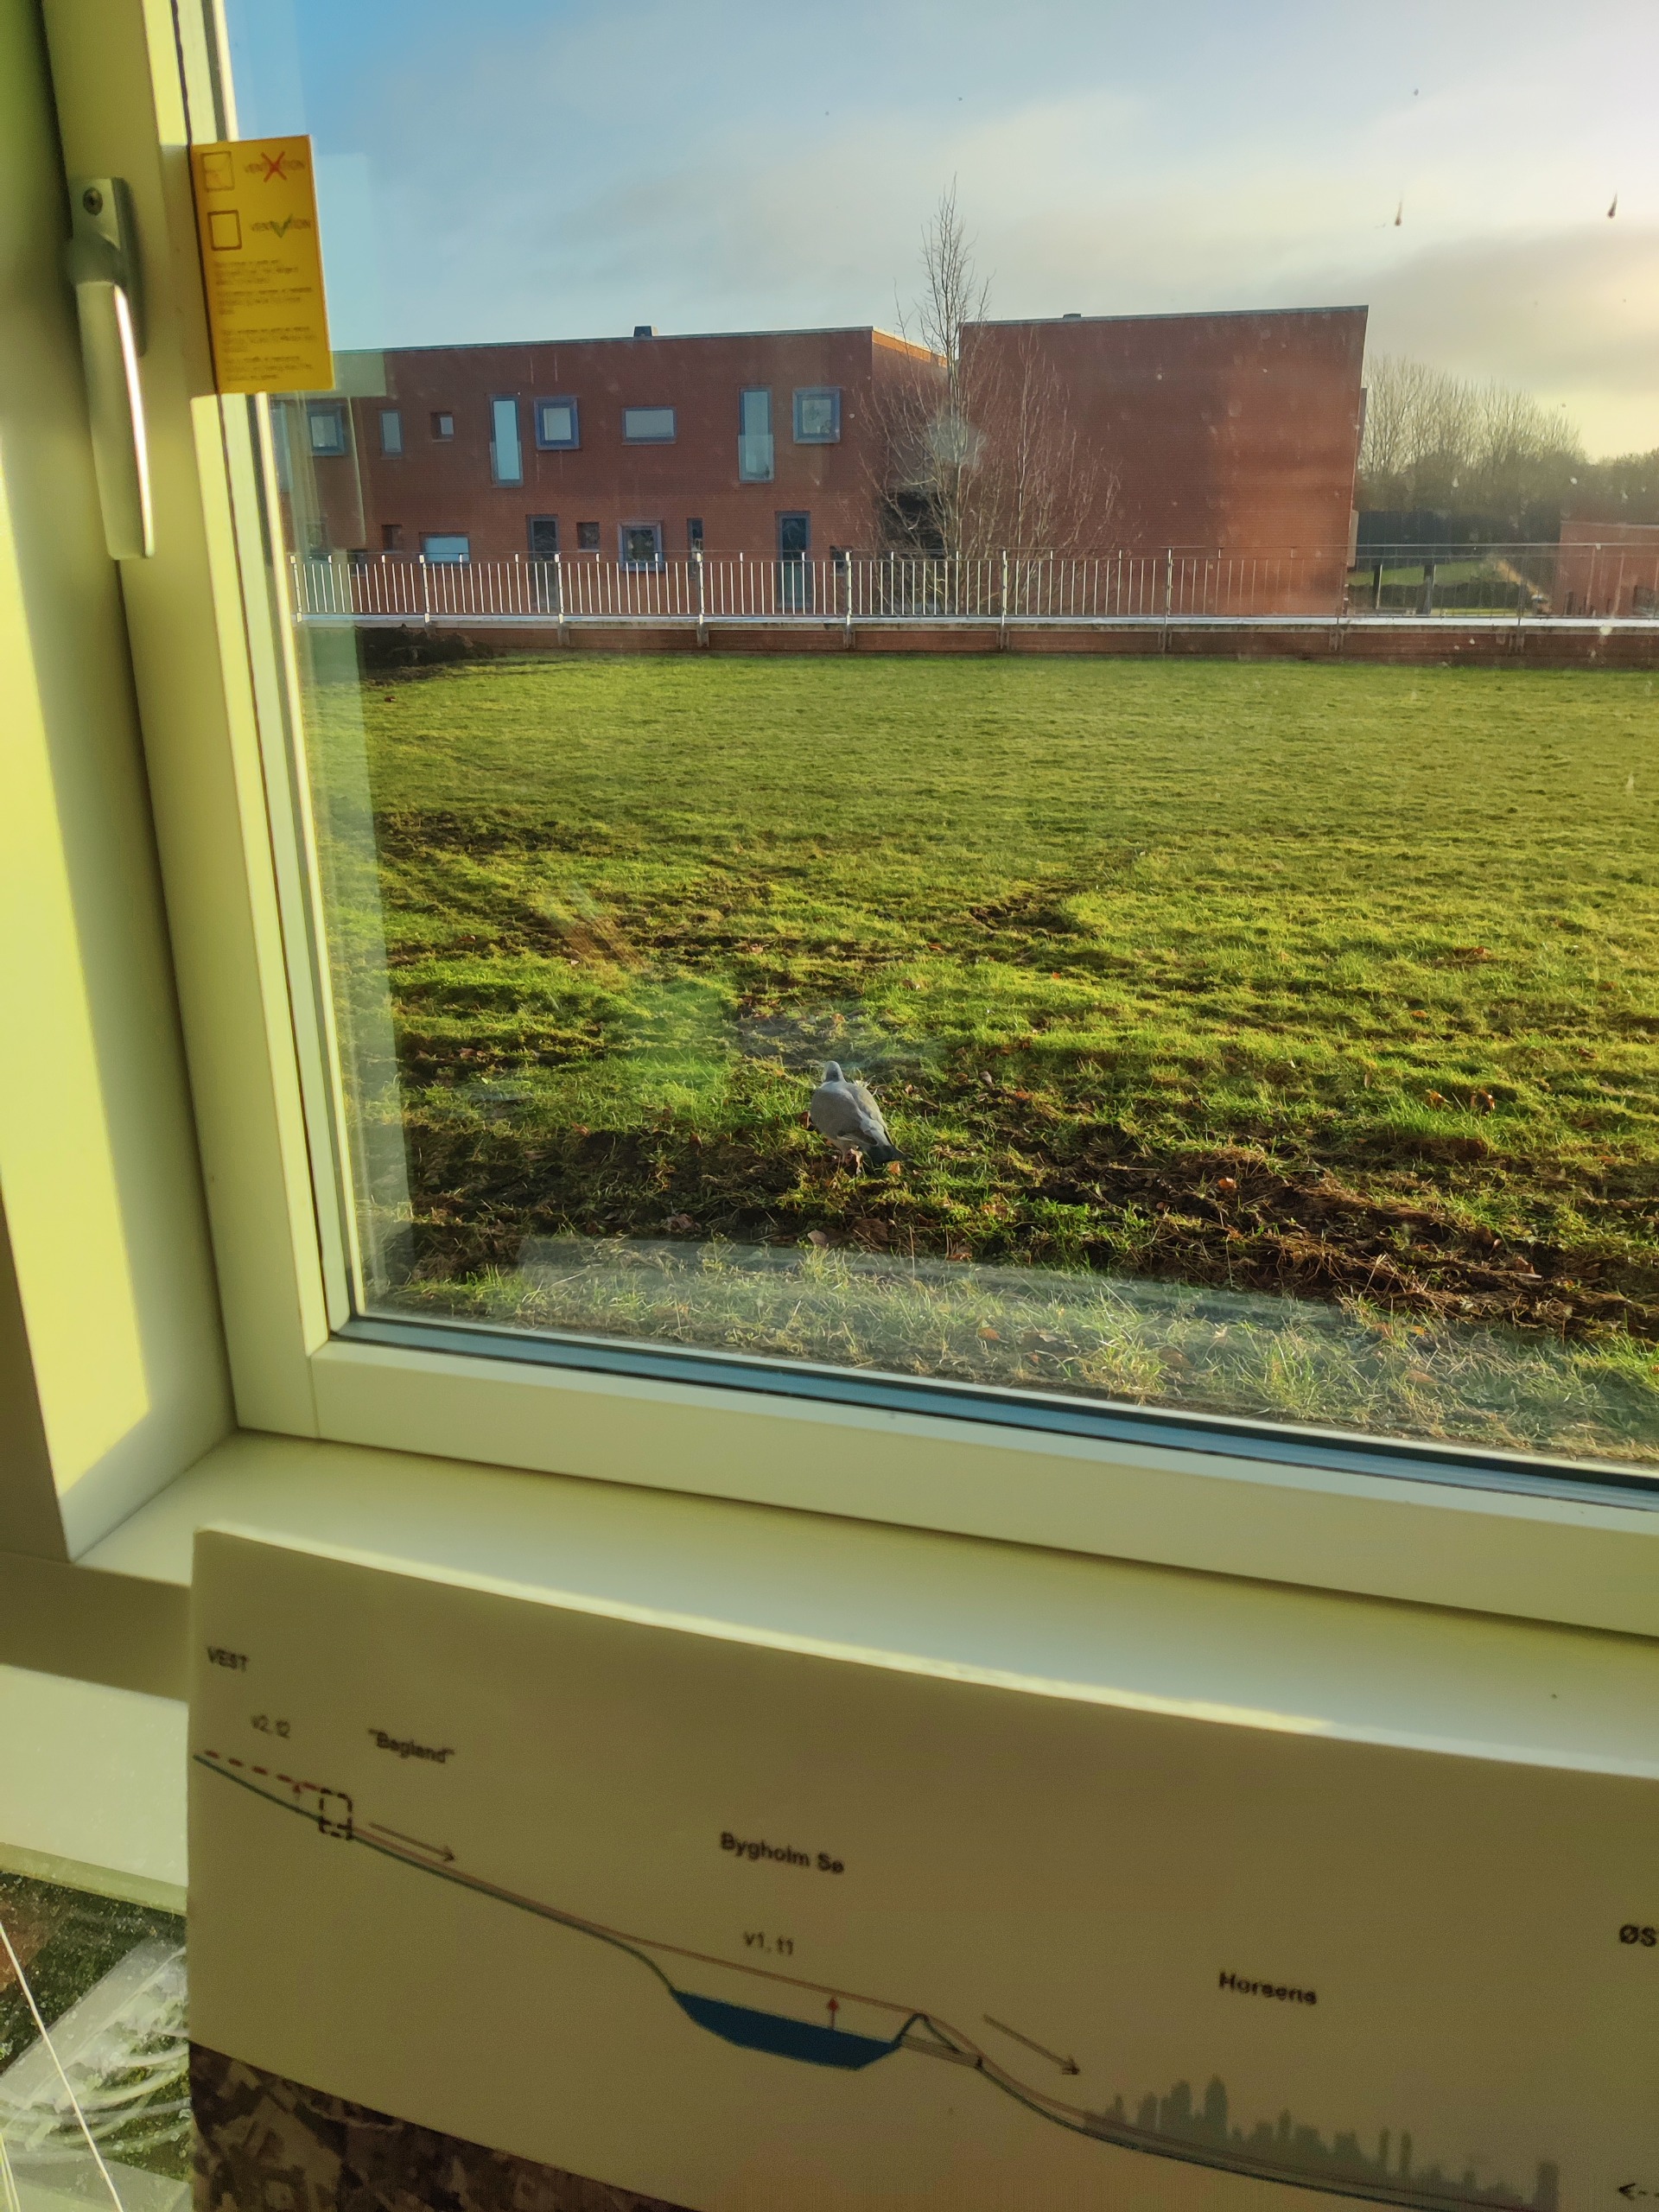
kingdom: Animalia
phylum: Chordata
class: Aves
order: Columbiformes
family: Columbidae
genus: Columba
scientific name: Columba palumbus
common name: Ringdue
